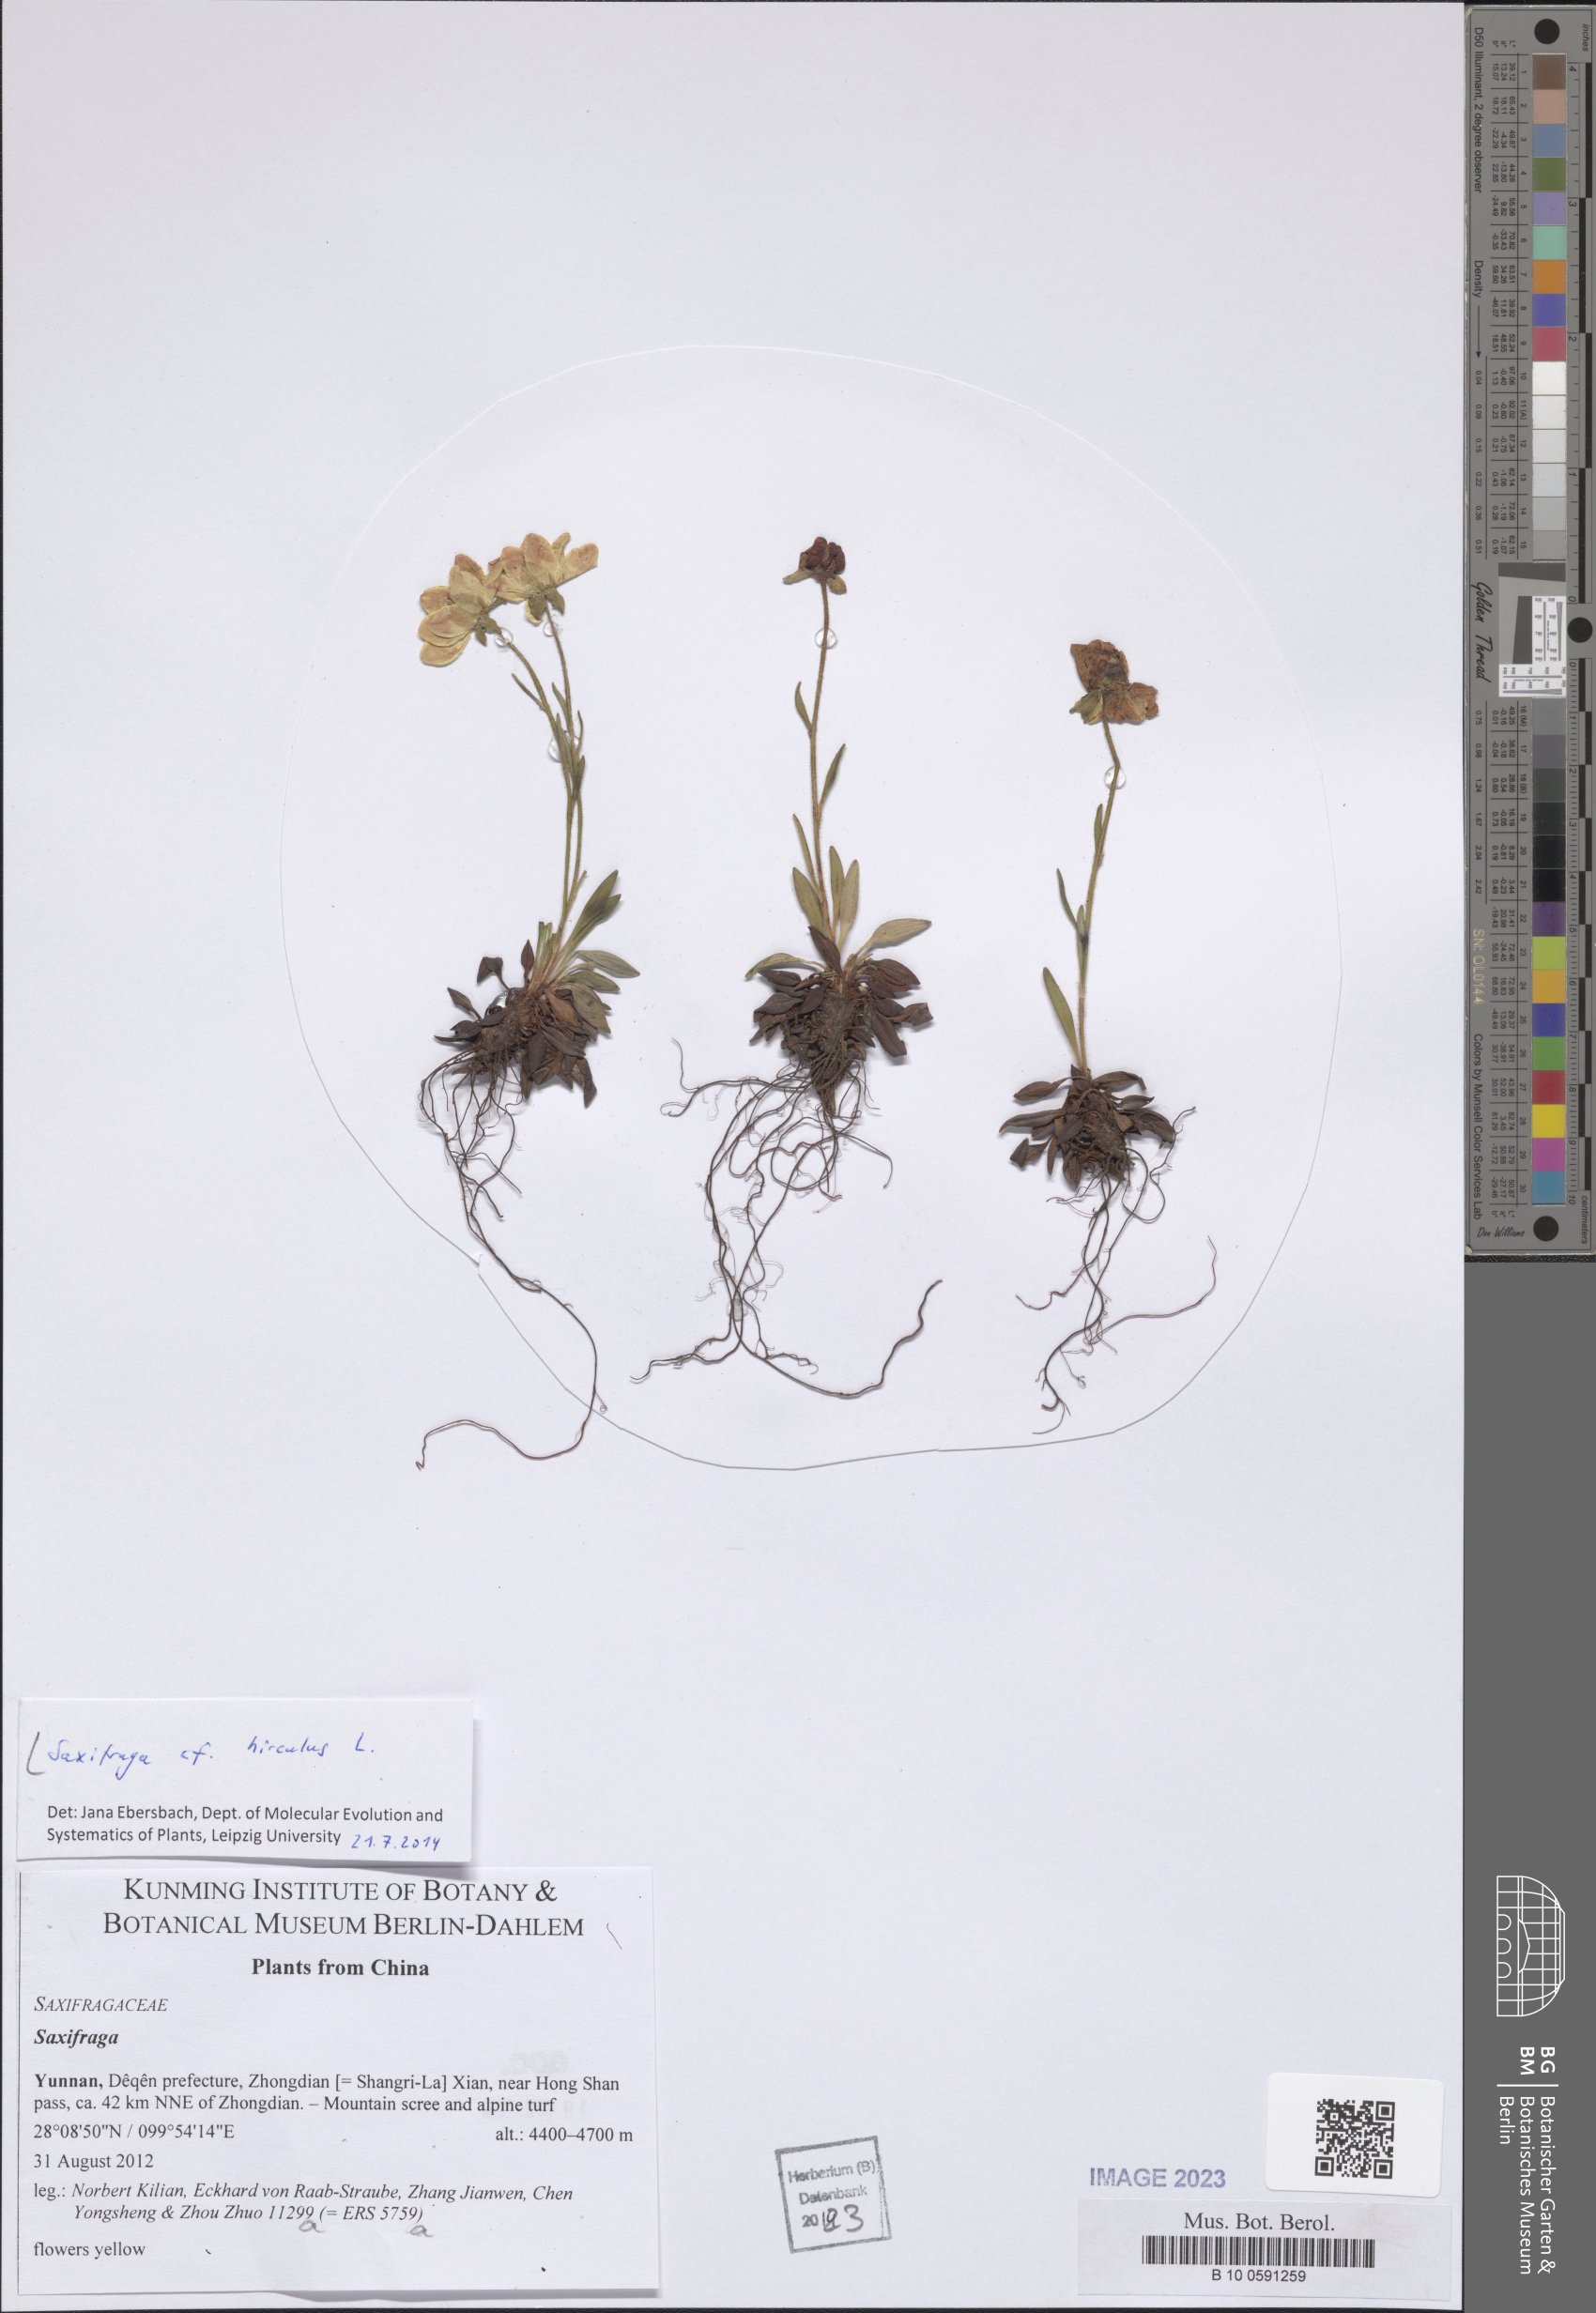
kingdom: Plantae
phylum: Tracheophyta
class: Magnoliopsida
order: Saxifragales
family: Saxifragaceae
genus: Saxifraga
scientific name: Saxifraga hirculus
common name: Yellow marsh saxifrage
